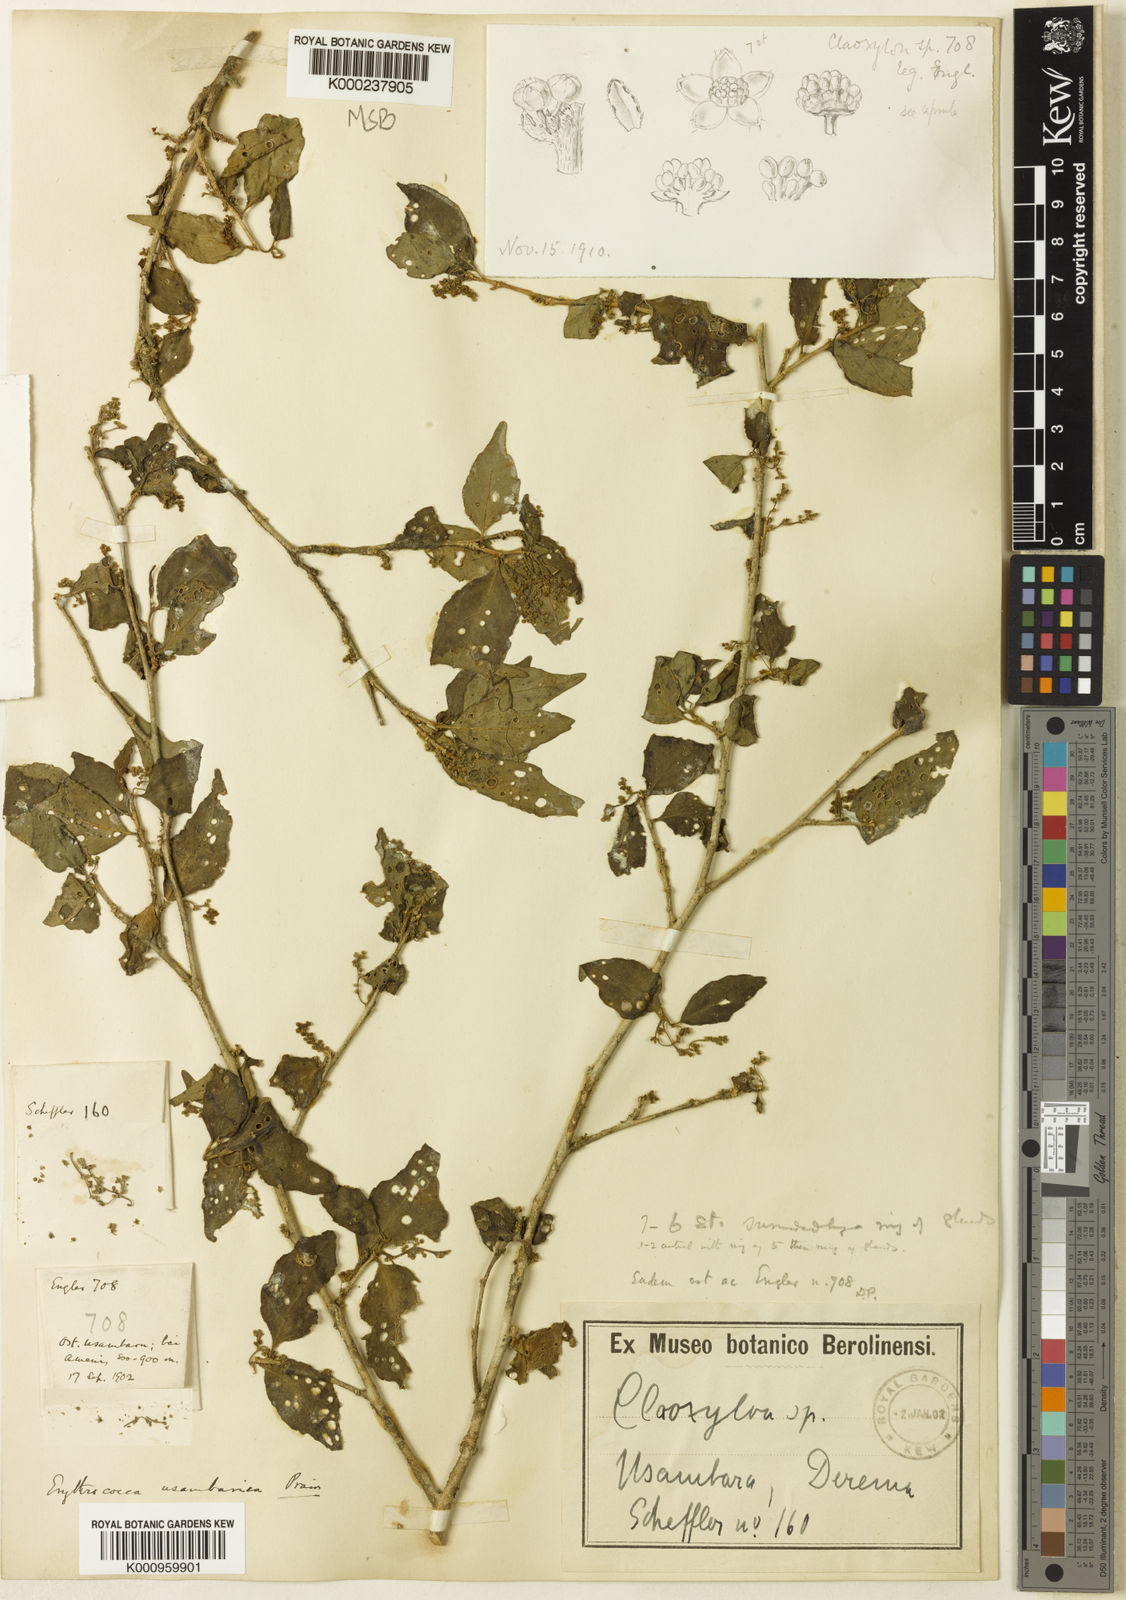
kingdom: Plantae
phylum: Tracheophyta
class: Magnoliopsida
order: Malpighiales
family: Euphorbiaceae
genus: Erythrococca
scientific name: Erythrococca usambarica
